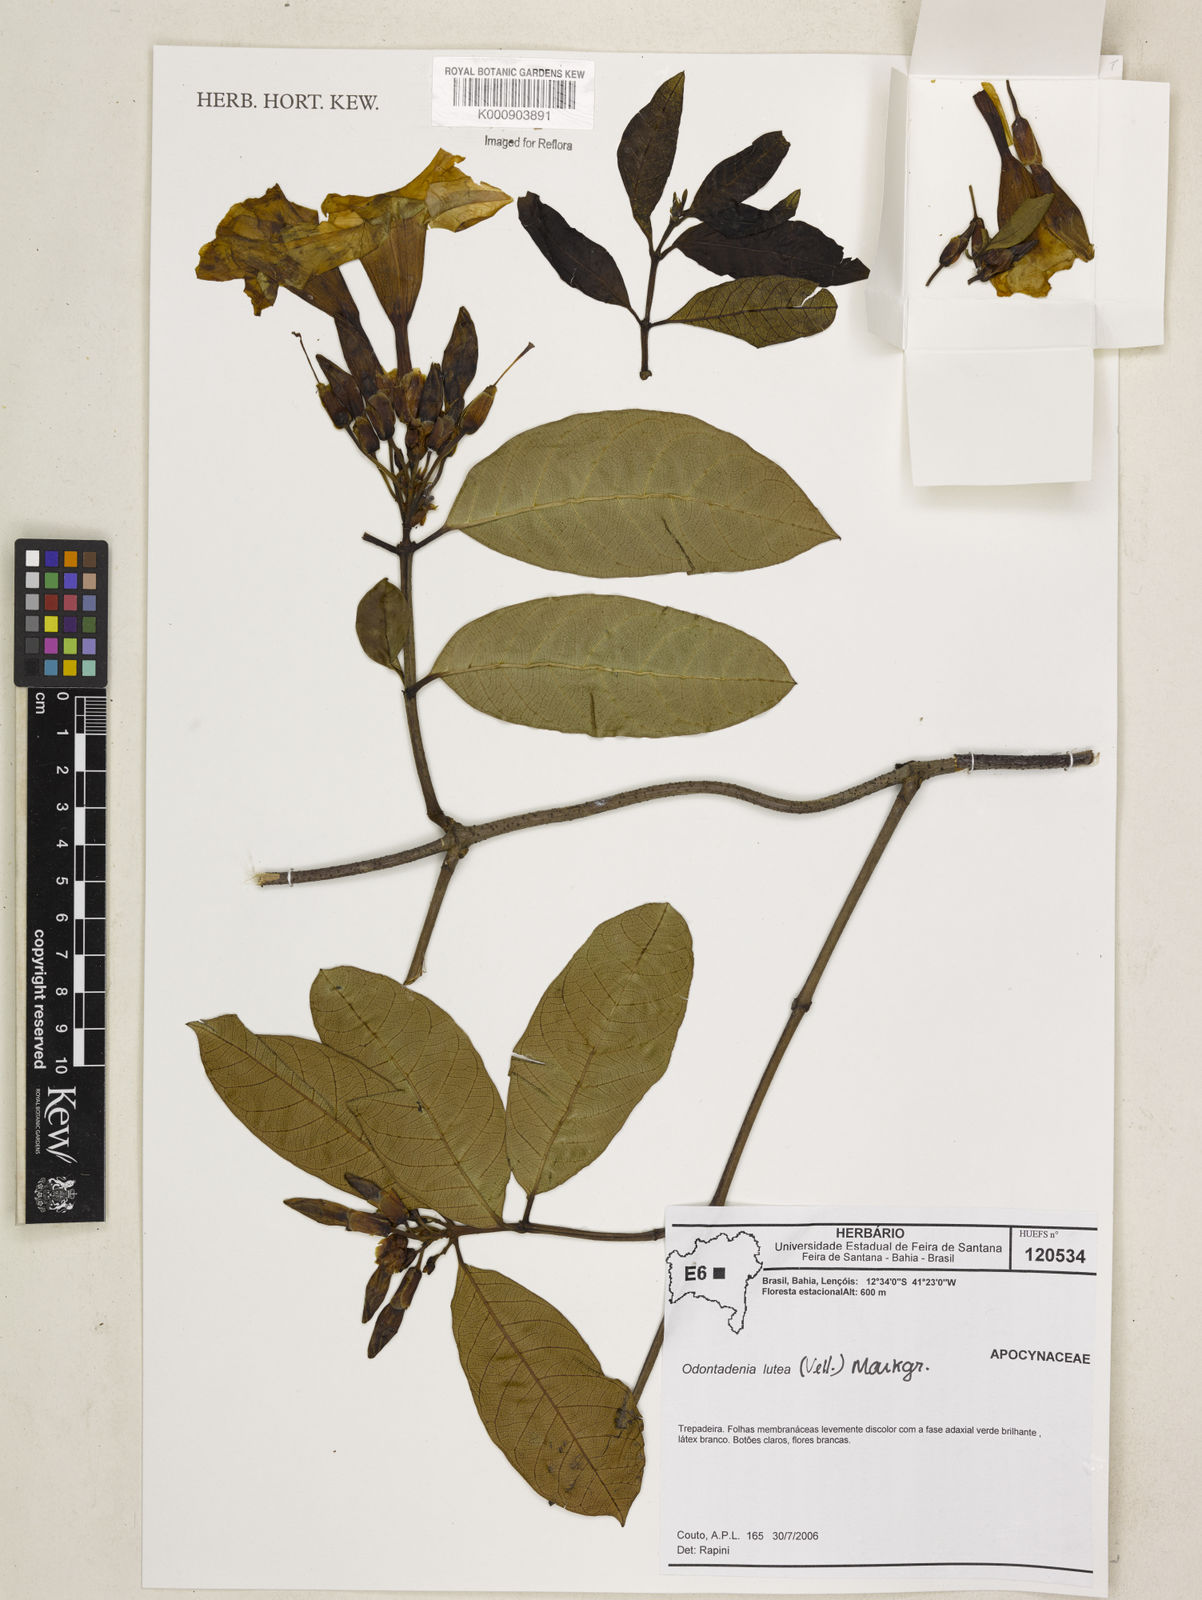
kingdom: Plantae
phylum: Tracheophyta
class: Magnoliopsida
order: Gentianales
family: Apocynaceae
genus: Odontadenia
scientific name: Odontadenia lutea
